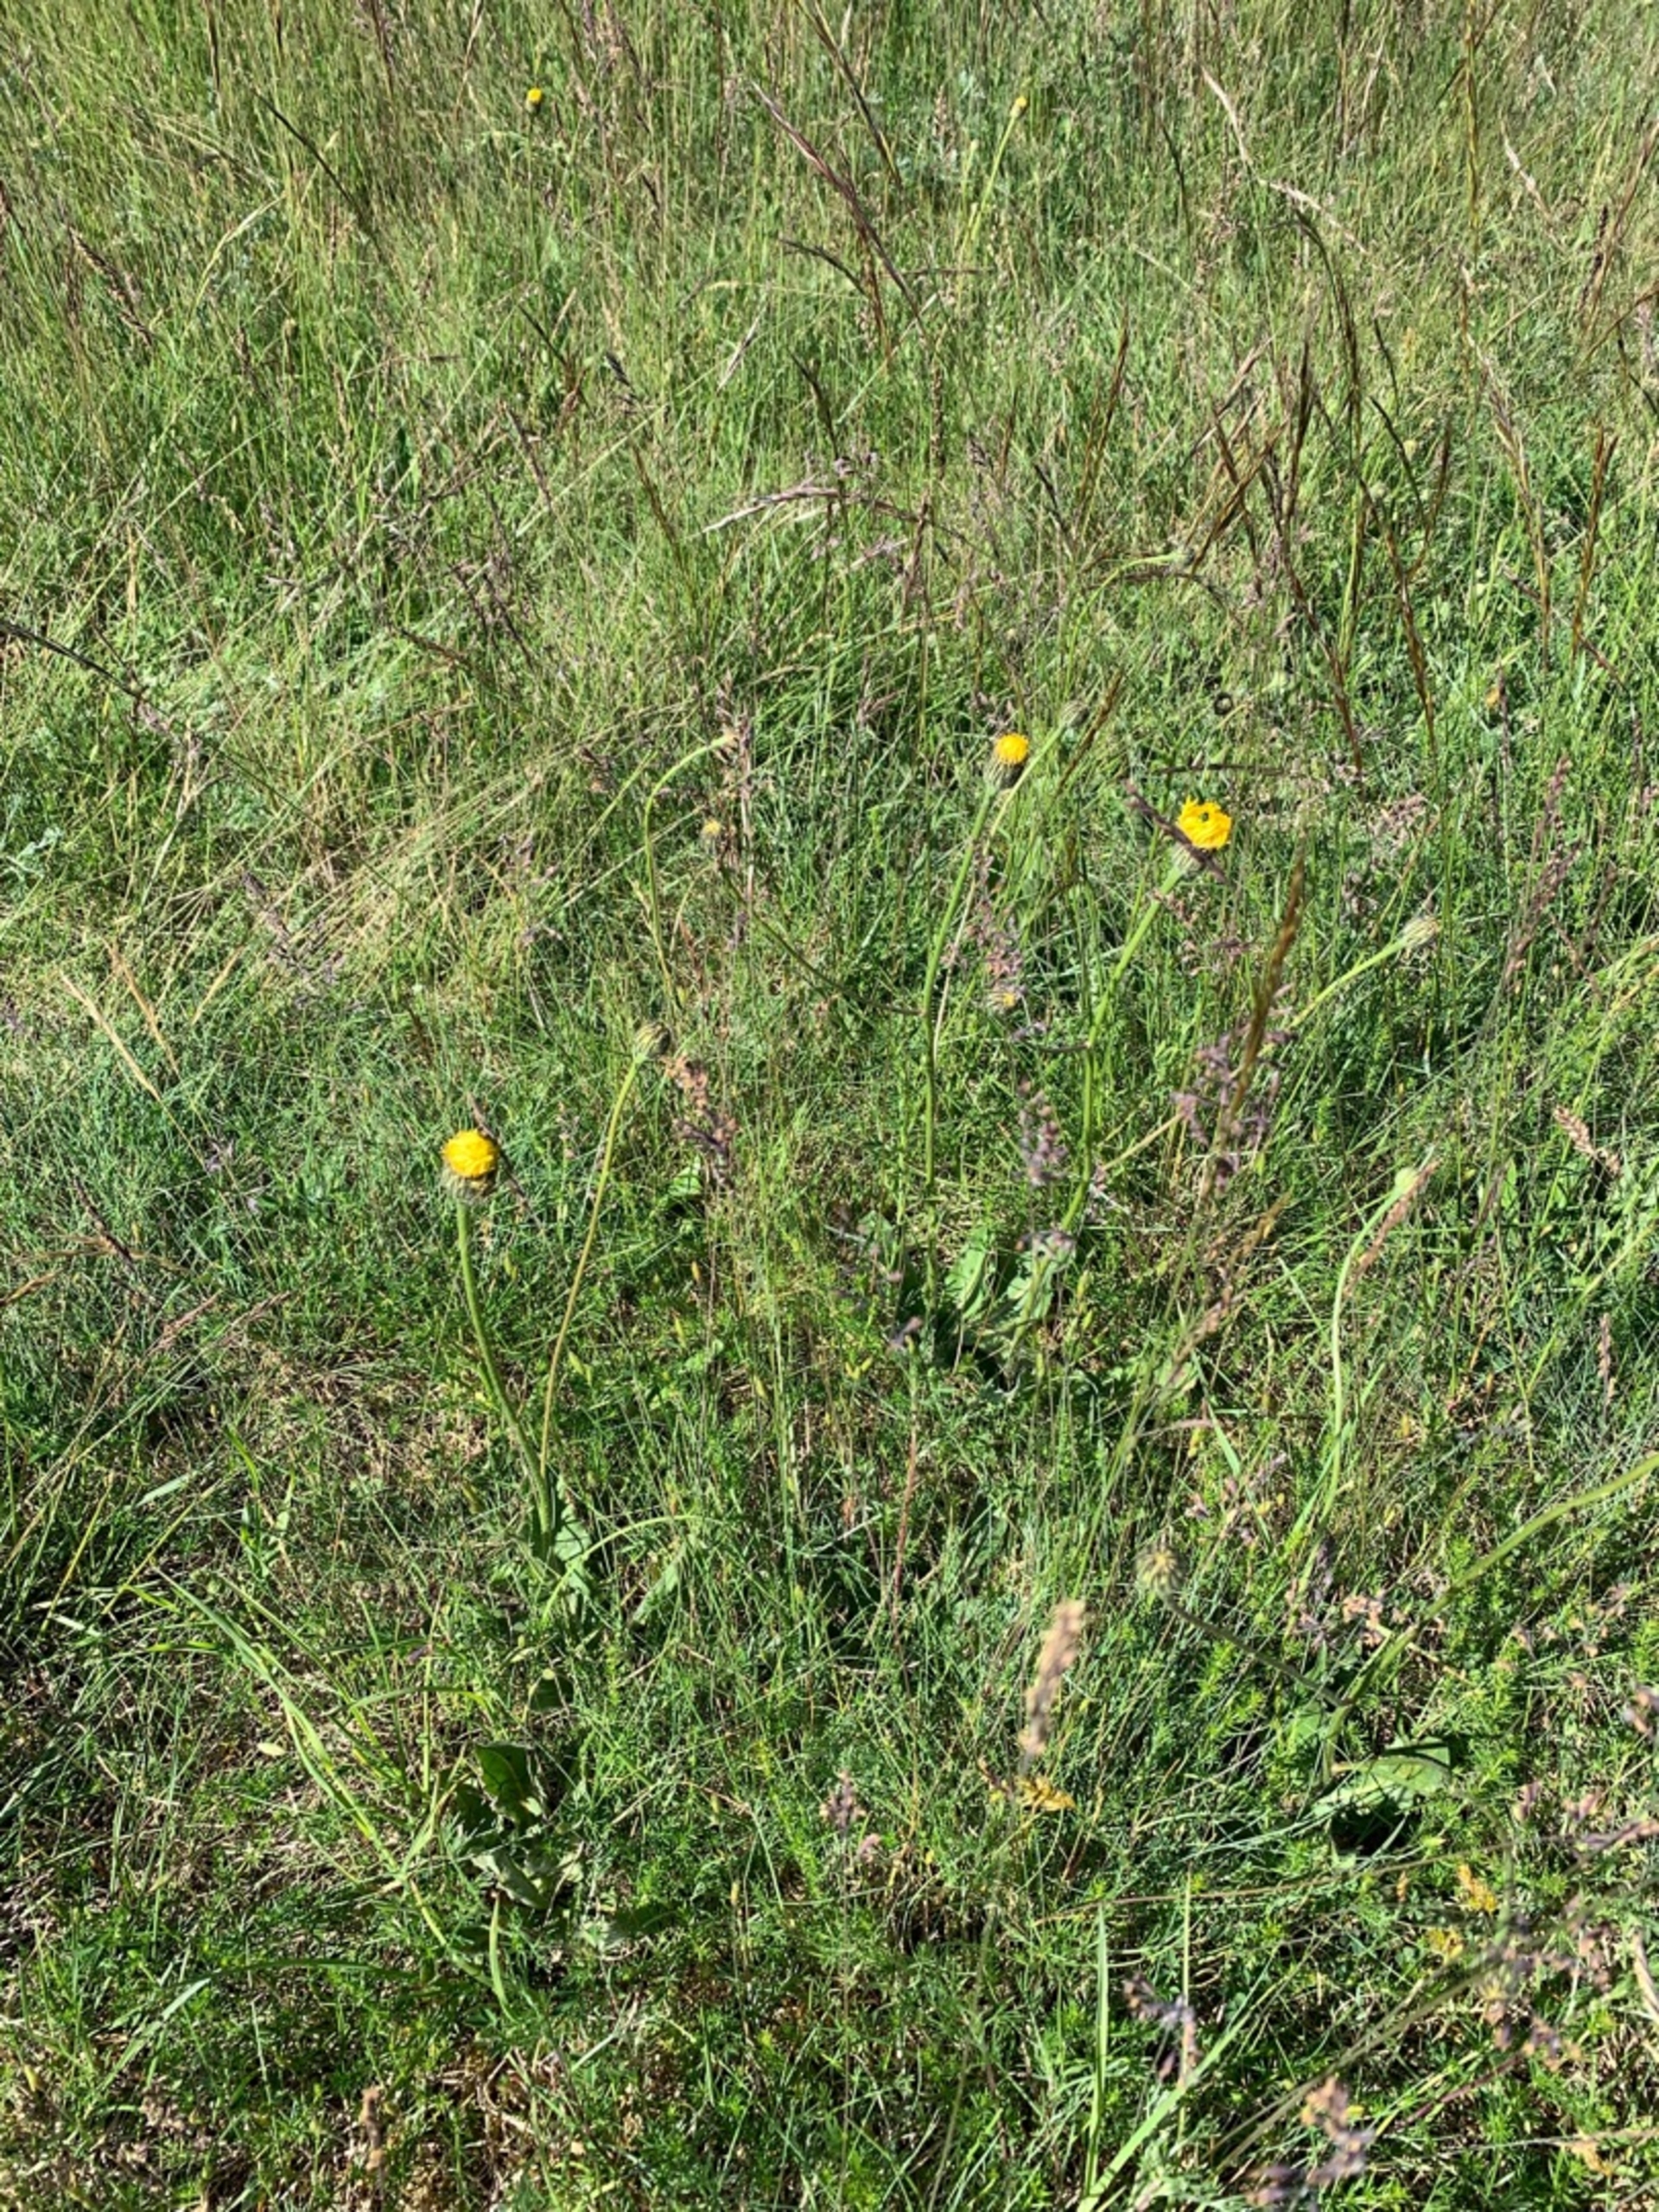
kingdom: Plantae
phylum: Tracheophyta
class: Magnoliopsida
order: Asterales
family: Asteraceae
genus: Trommsdorffia
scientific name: Trommsdorffia maculata
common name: Plettet kongepen
